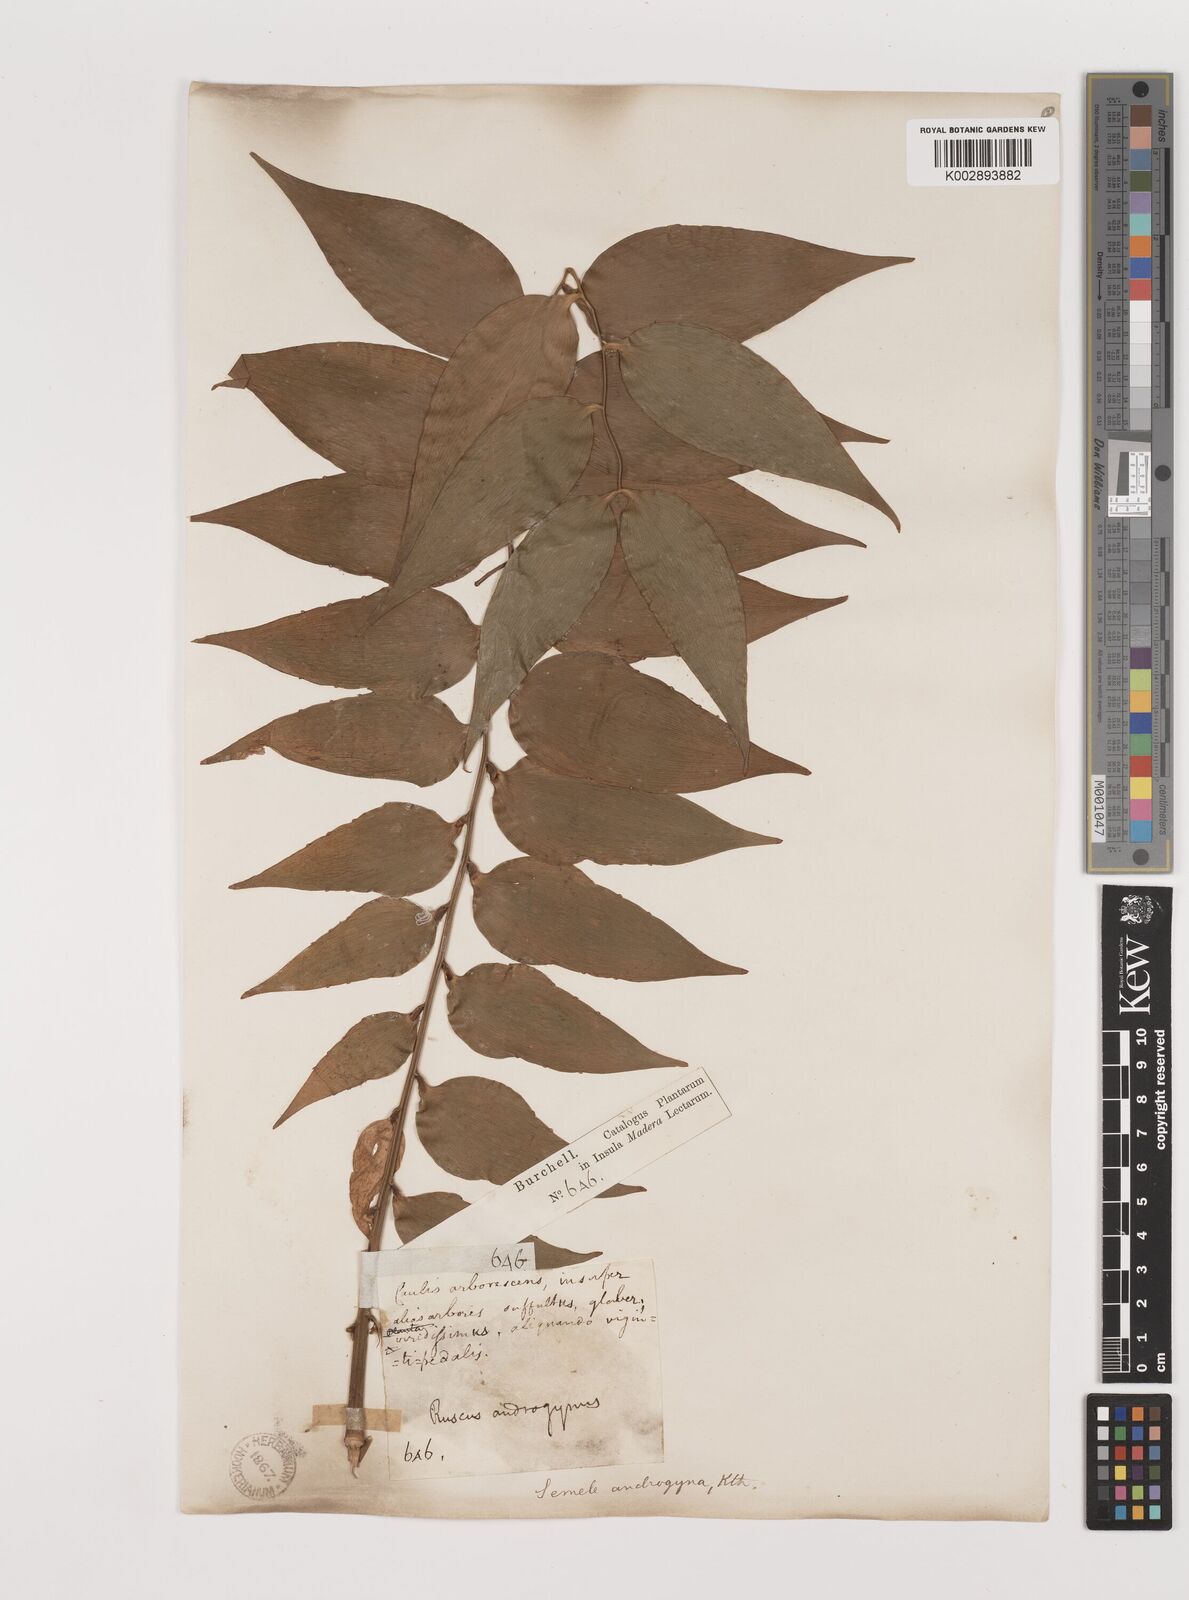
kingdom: Plantae
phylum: Tracheophyta
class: Liliopsida
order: Asparagales
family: Asparagaceae
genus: Semele
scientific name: Semele androgyna
